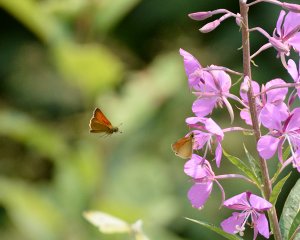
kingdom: Animalia
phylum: Arthropoda
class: Insecta
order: Lepidoptera
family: Hesperiidae
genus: Thymelicus
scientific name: Thymelicus lineola
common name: European Skipper
